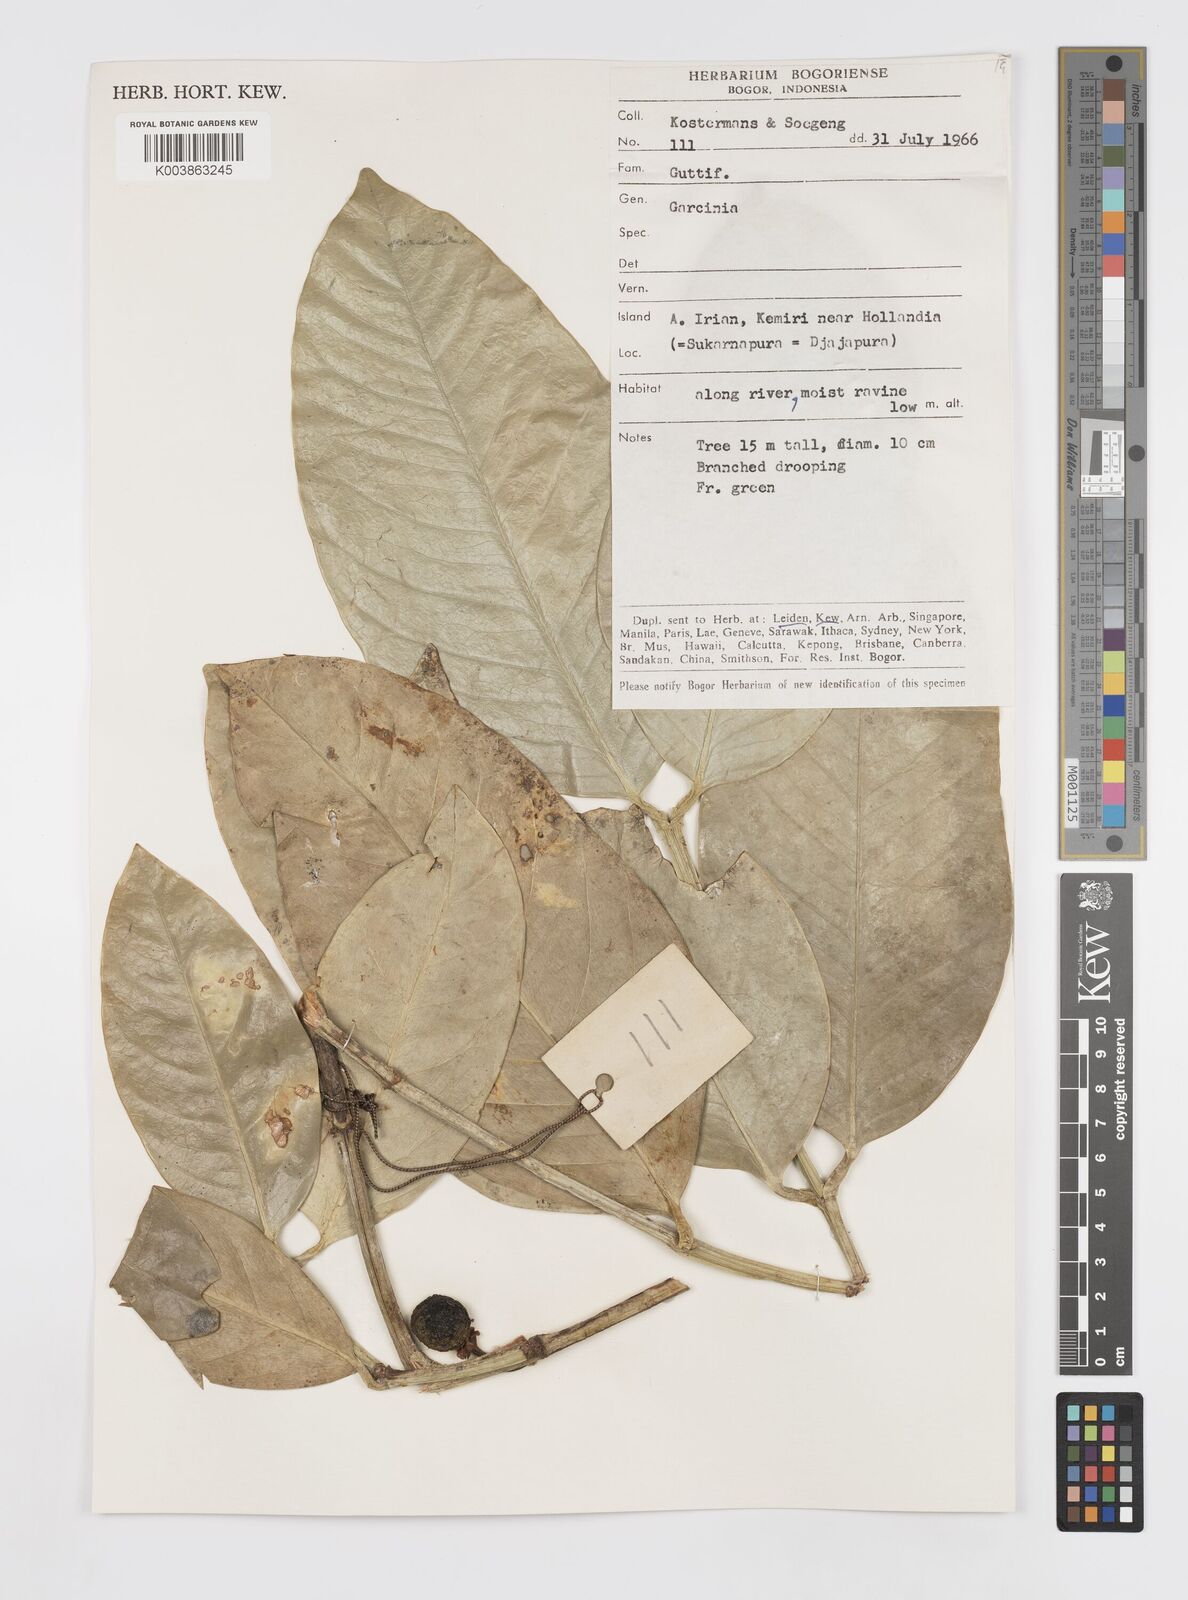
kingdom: Plantae
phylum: Tracheophyta
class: Magnoliopsida
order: Malpighiales
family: Clusiaceae
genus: Garcinia
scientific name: Garcinia
